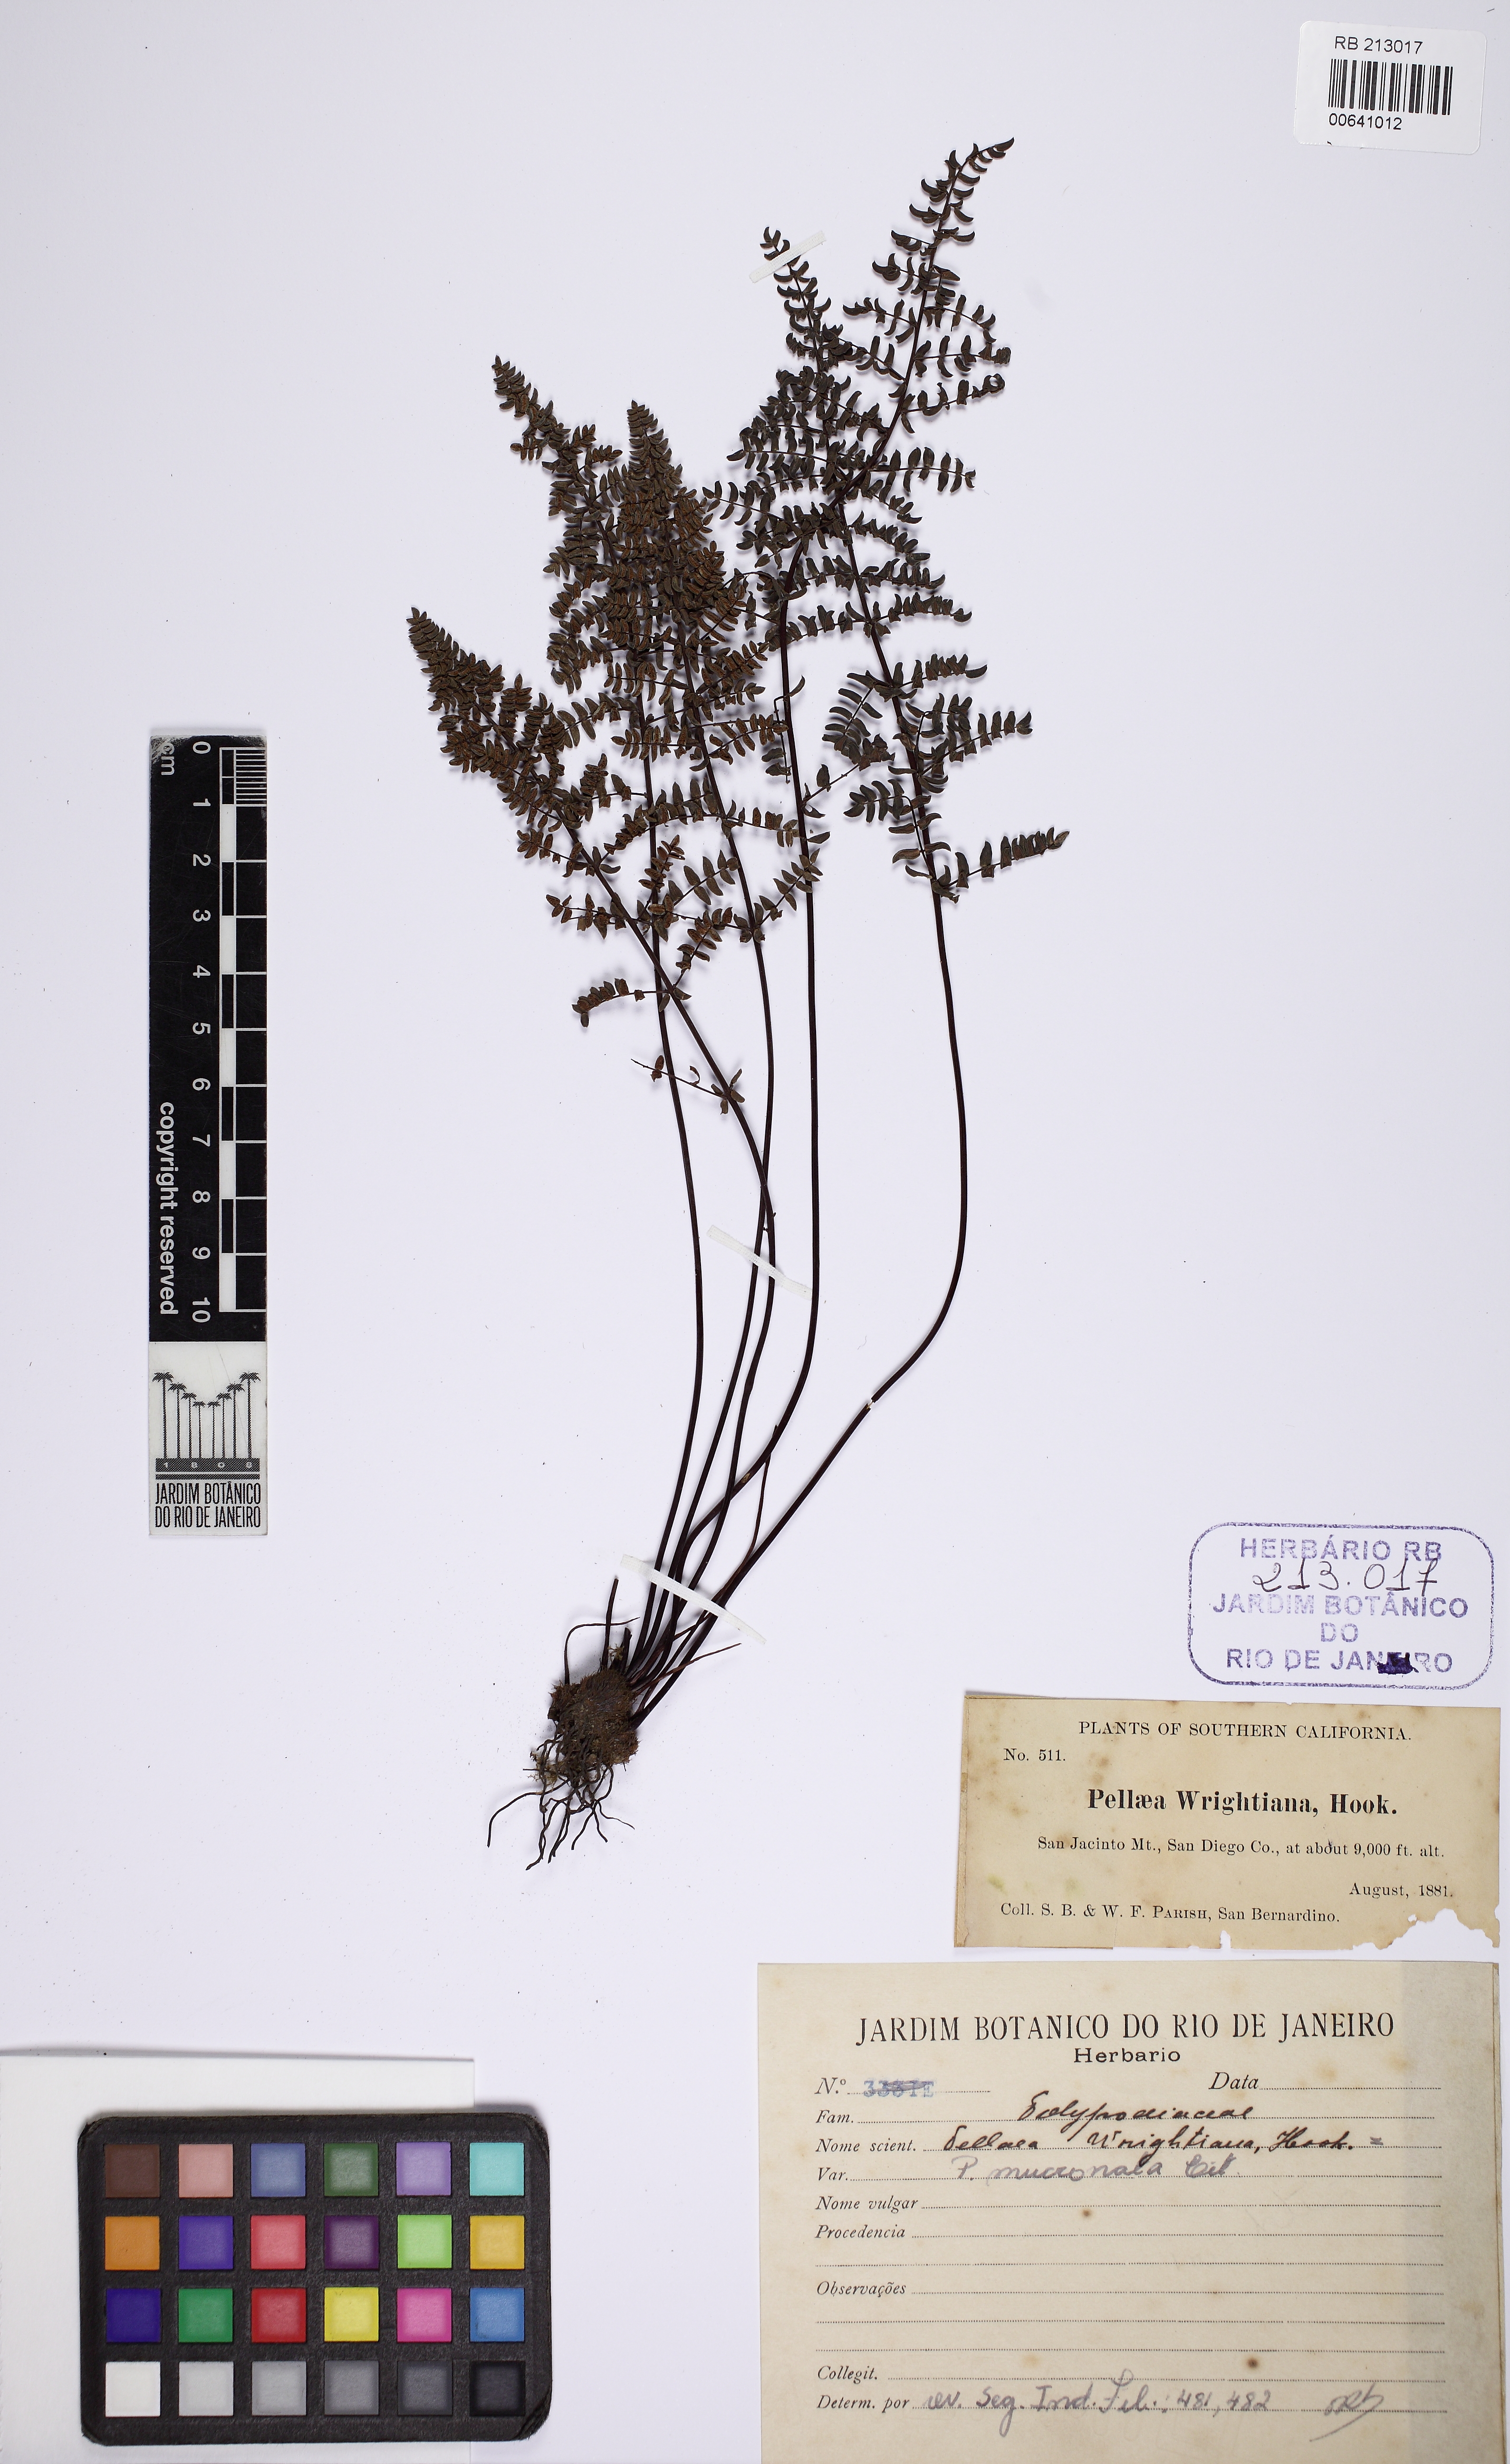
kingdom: Plantae
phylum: Tracheophyta
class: Polypodiopsida
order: Polypodiales
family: Pteridaceae
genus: Pellaea
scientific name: Pellaea wrightiana
